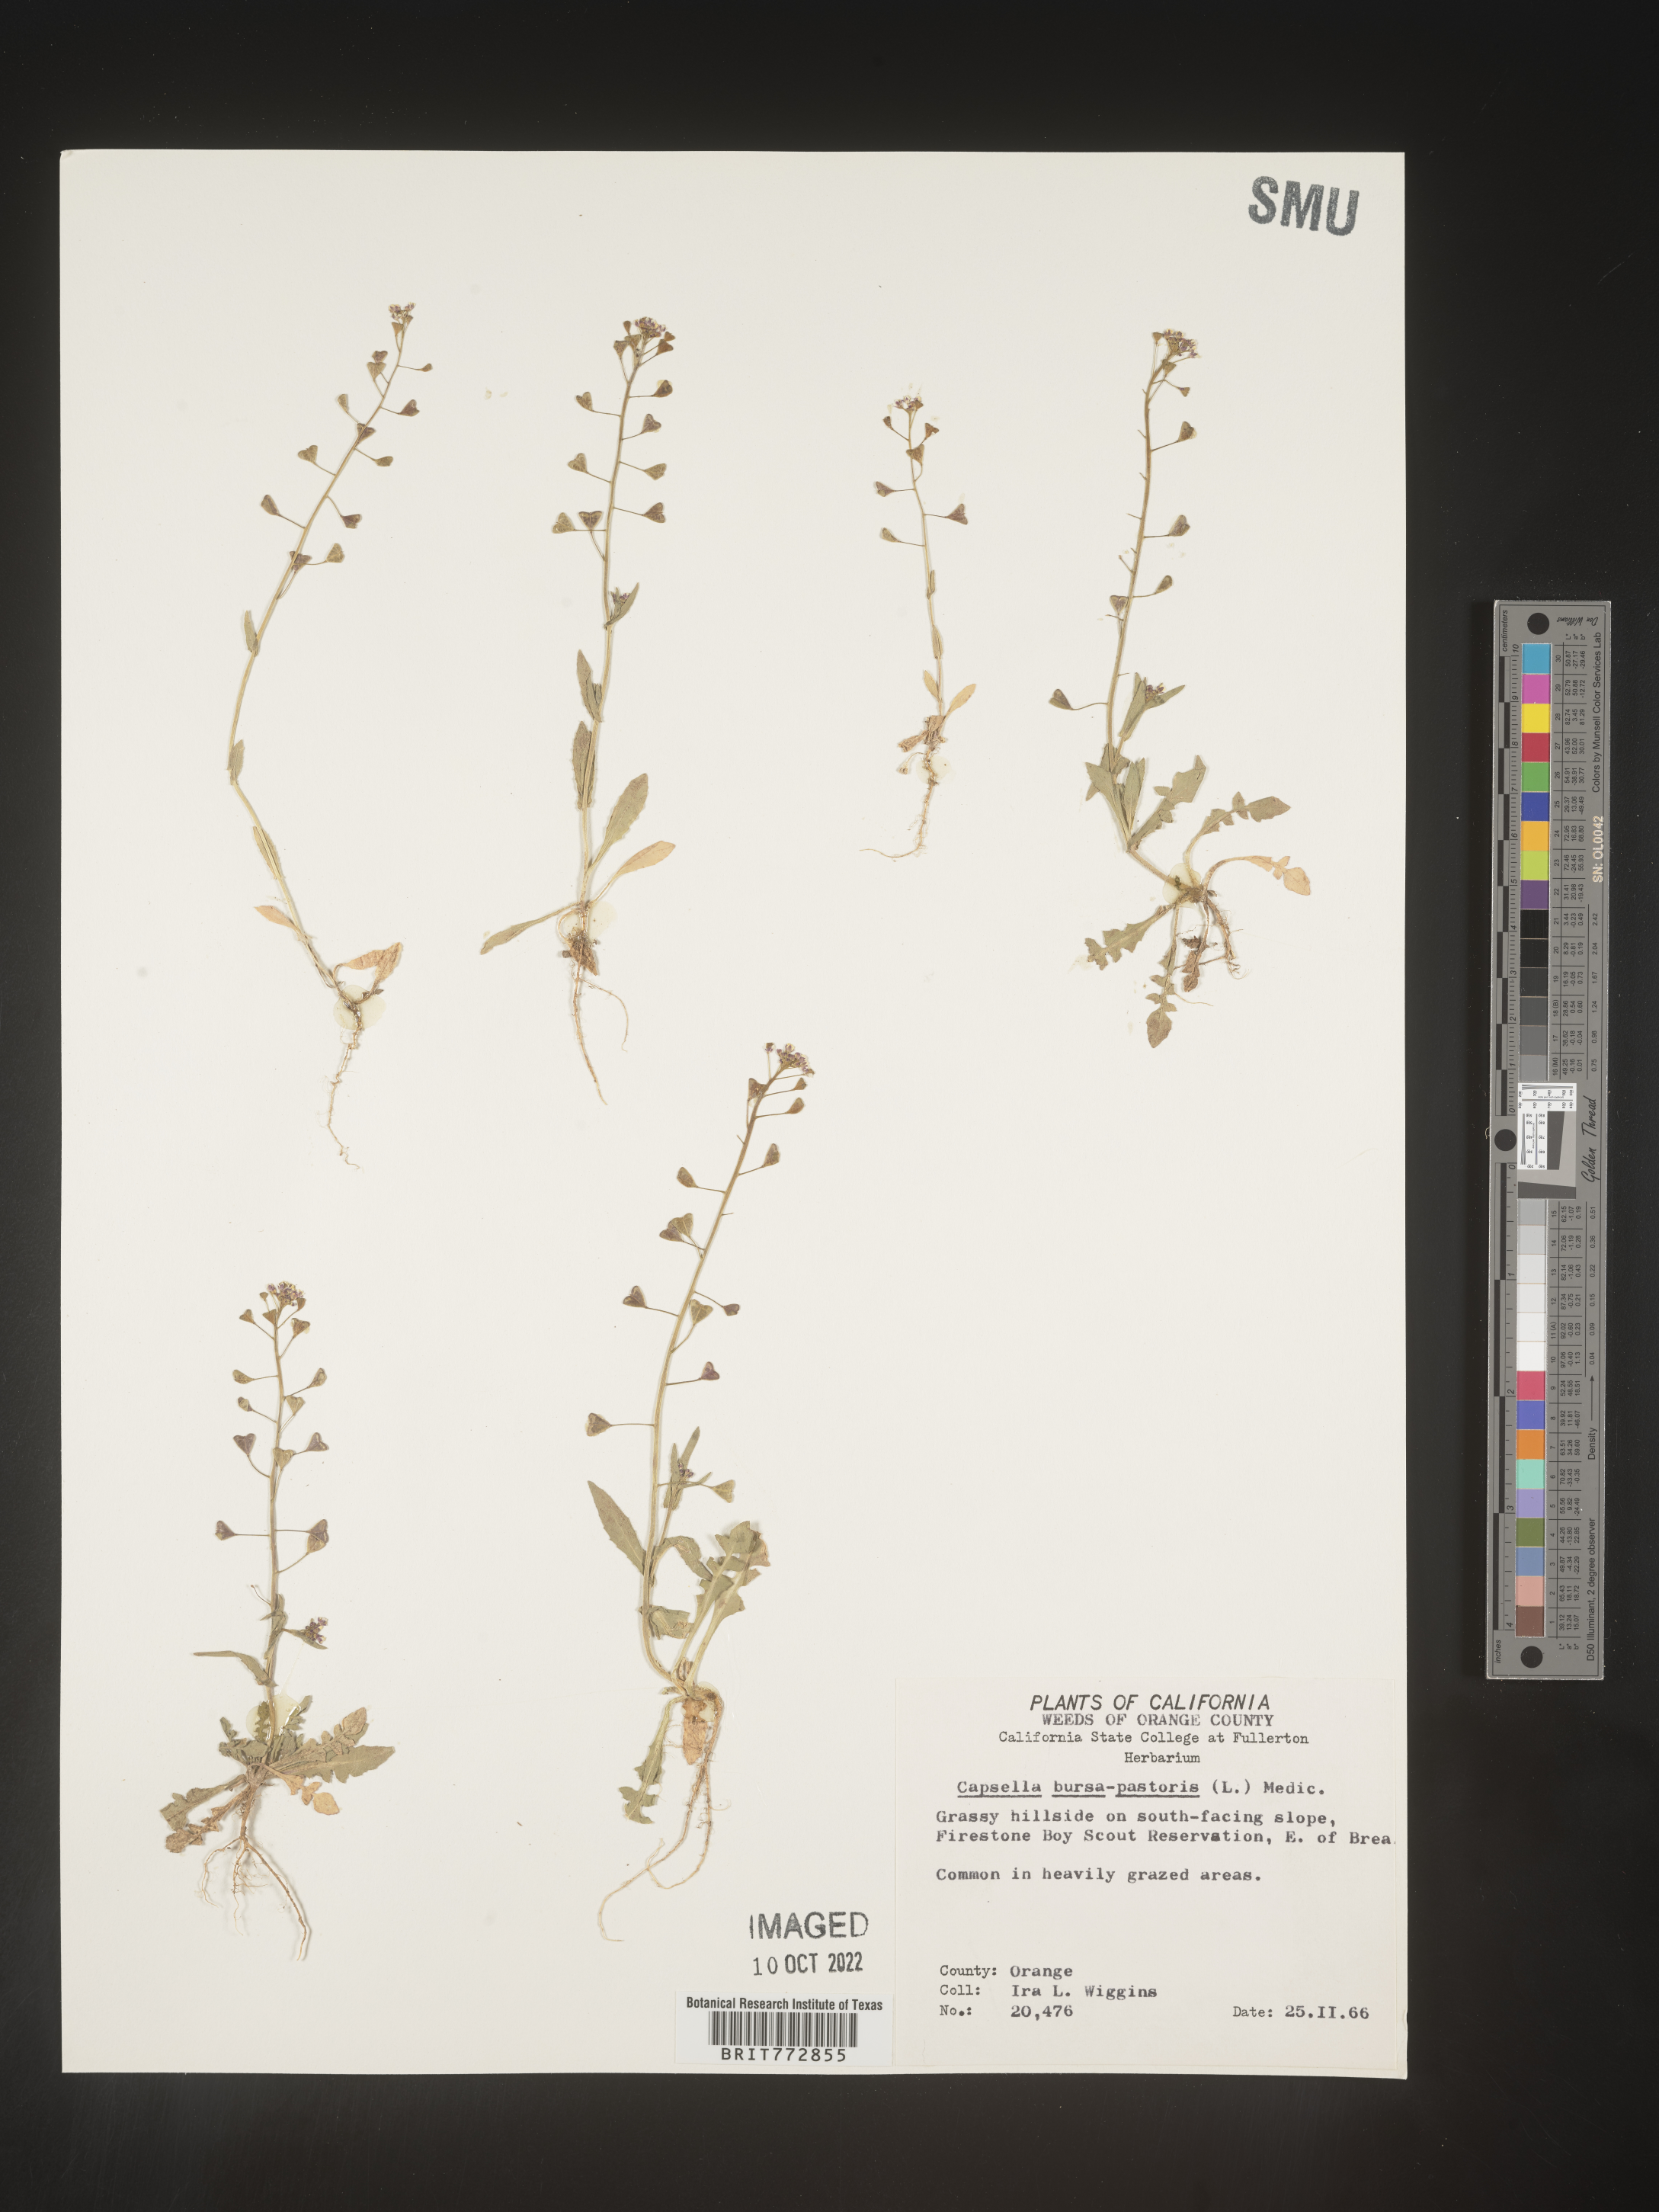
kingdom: Plantae
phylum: Tracheophyta
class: Magnoliopsida
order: Brassicales
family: Brassicaceae
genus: Capsella
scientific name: Capsella bursa-pastoris
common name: Shepherd's purse
